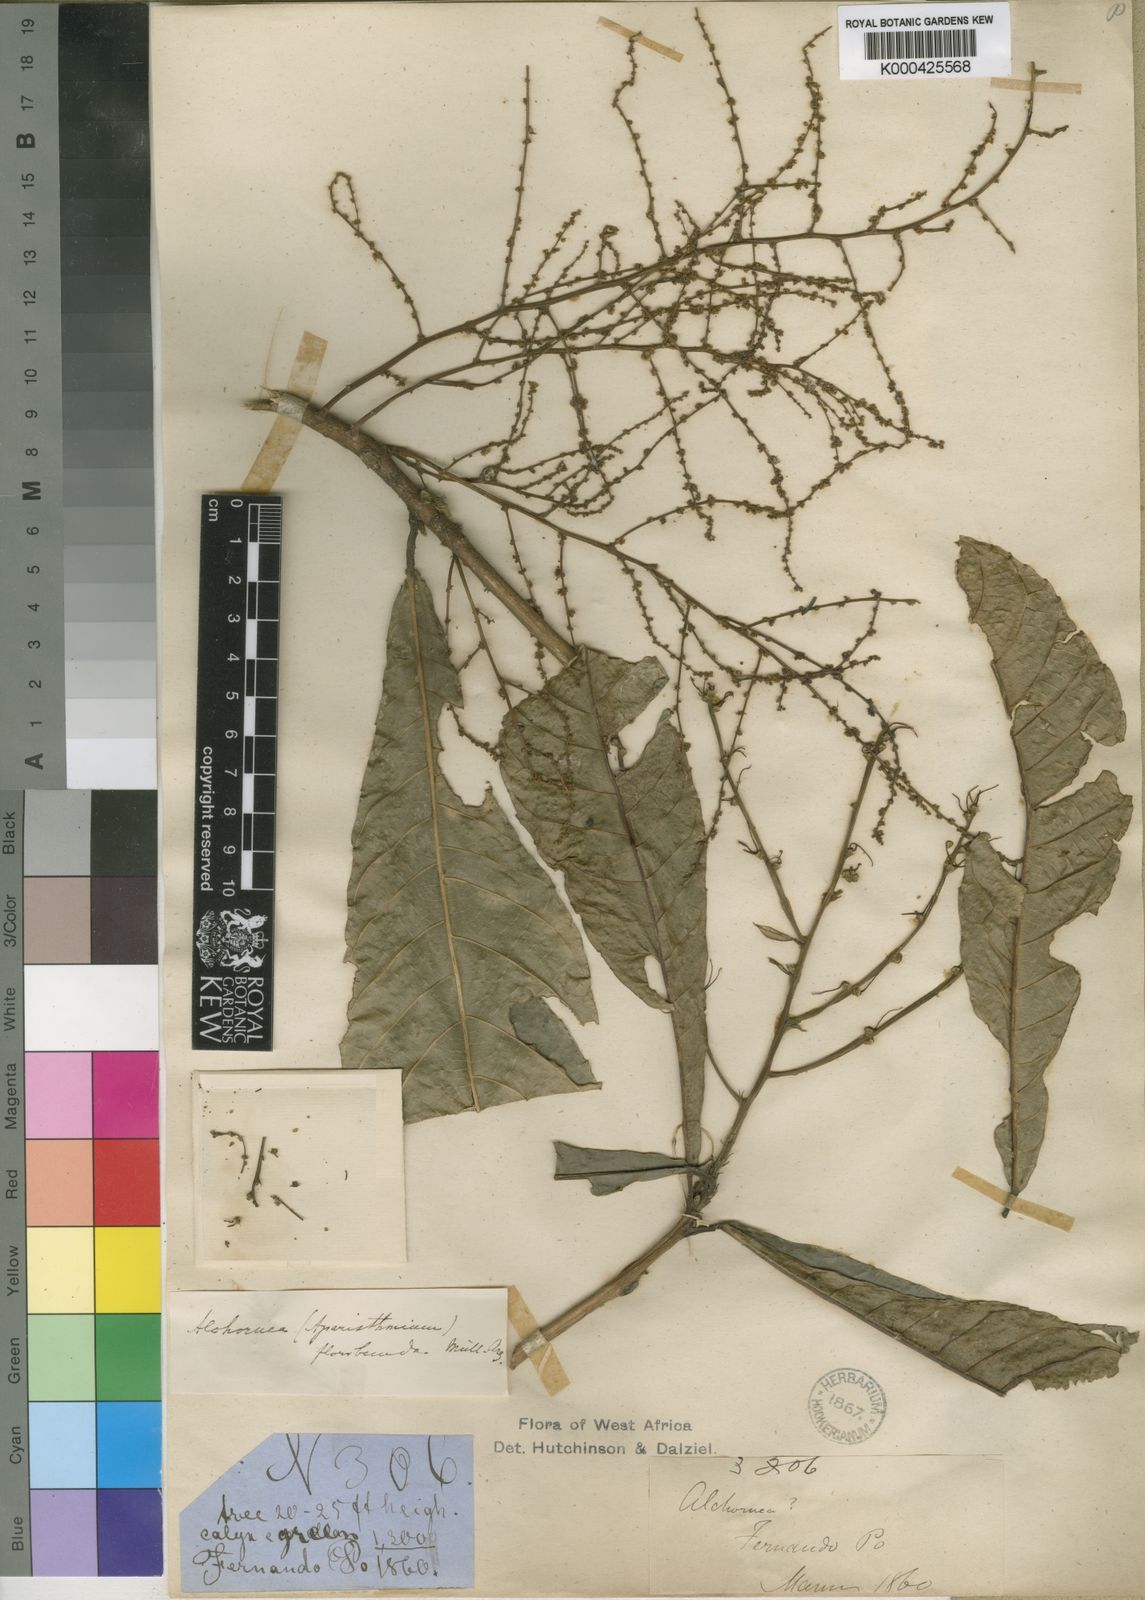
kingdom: Plantae
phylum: Tracheophyta
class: Magnoliopsida
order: Malpighiales
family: Euphorbiaceae
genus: Alchornea
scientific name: Alchornea
